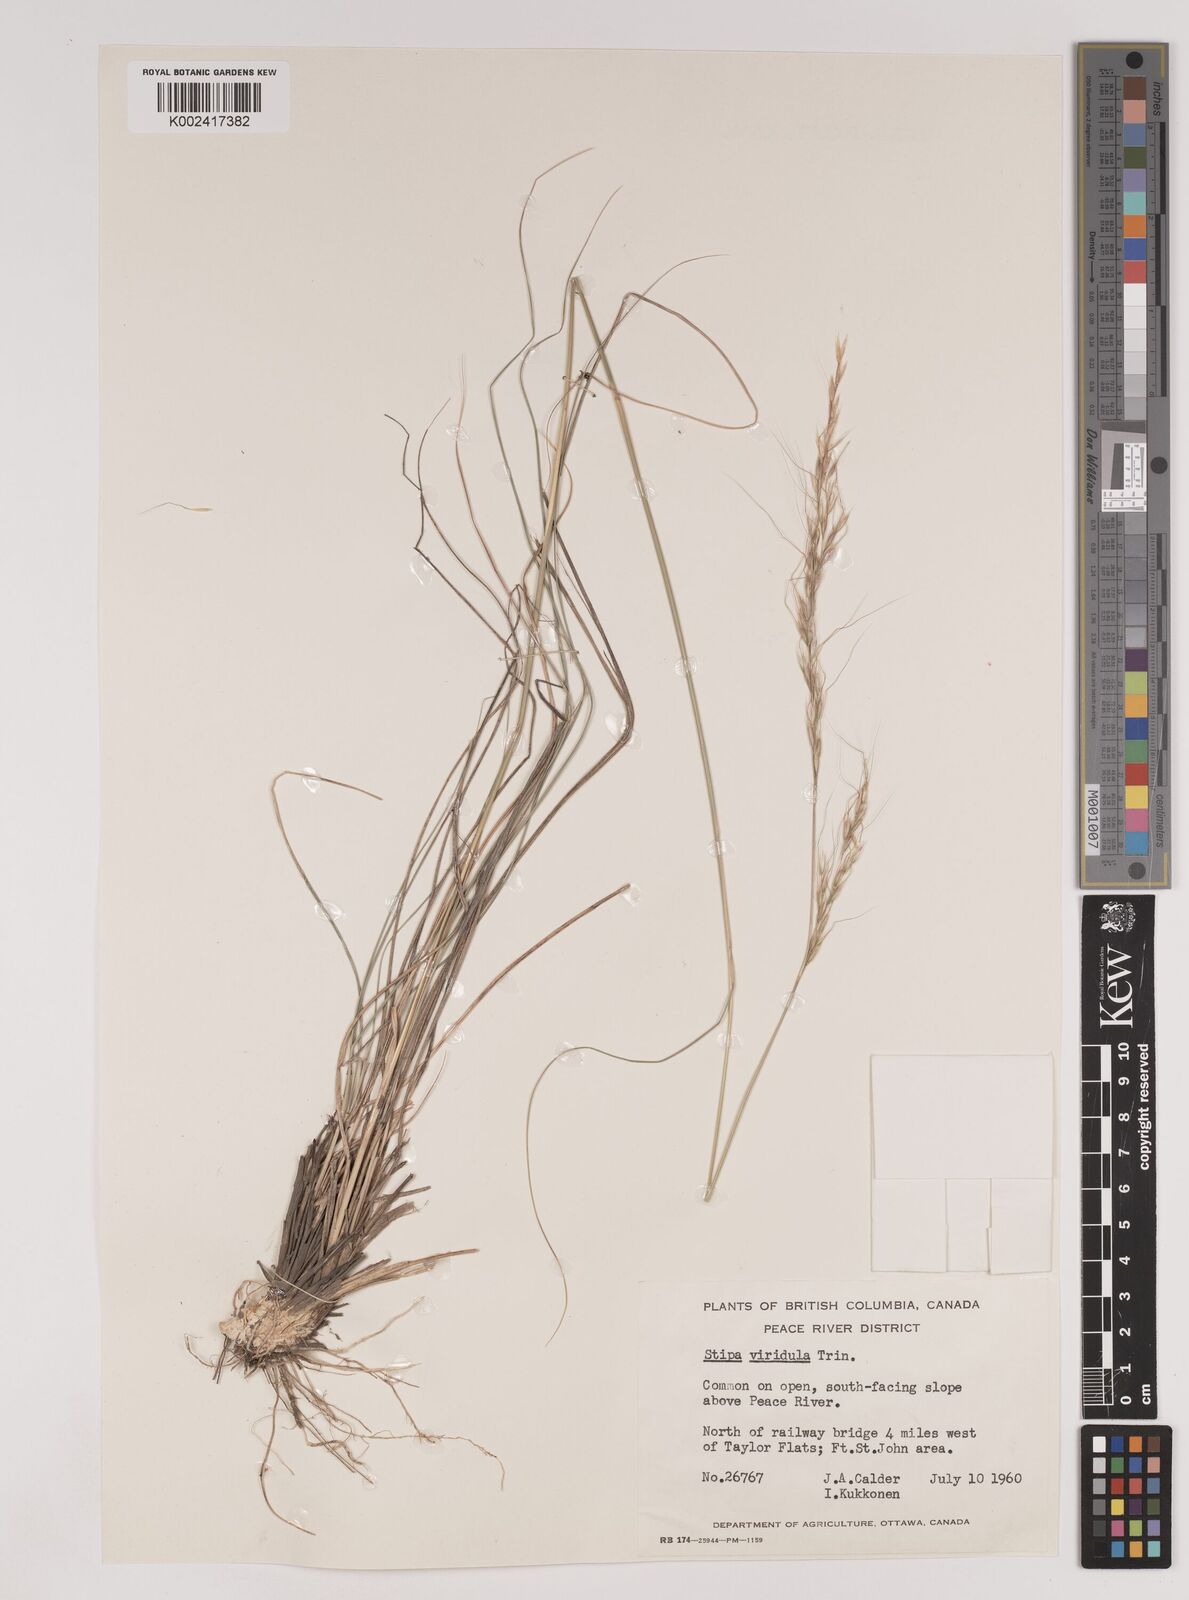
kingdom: Plantae
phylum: Tracheophyta
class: Liliopsida
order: Poales
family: Poaceae
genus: Nassella
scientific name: Nassella viridula
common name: Green needlegrass
